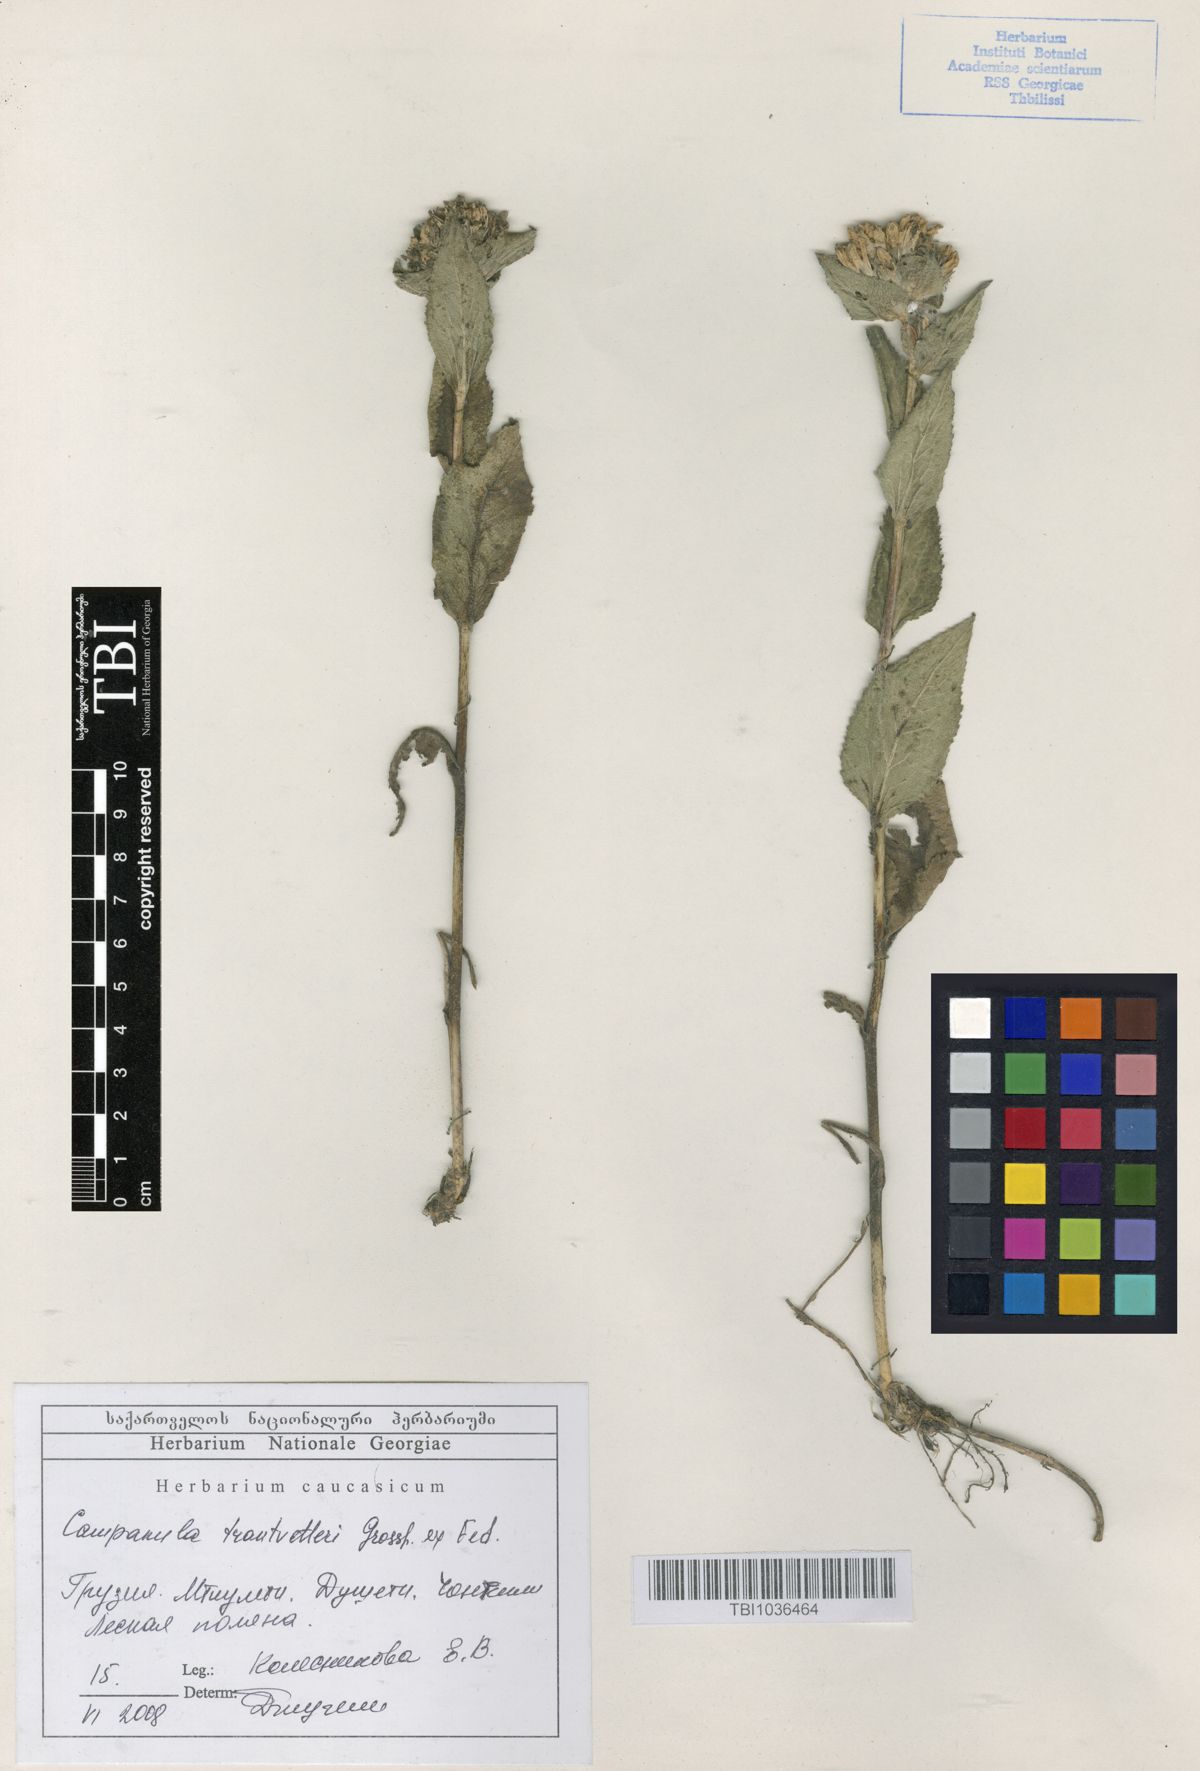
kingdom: Plantae
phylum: Tracheophyta
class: Magnoliopsida
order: Asterales
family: Campanulaceae
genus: Campanula
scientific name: Campanula glomerata
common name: Clustered bellflower
